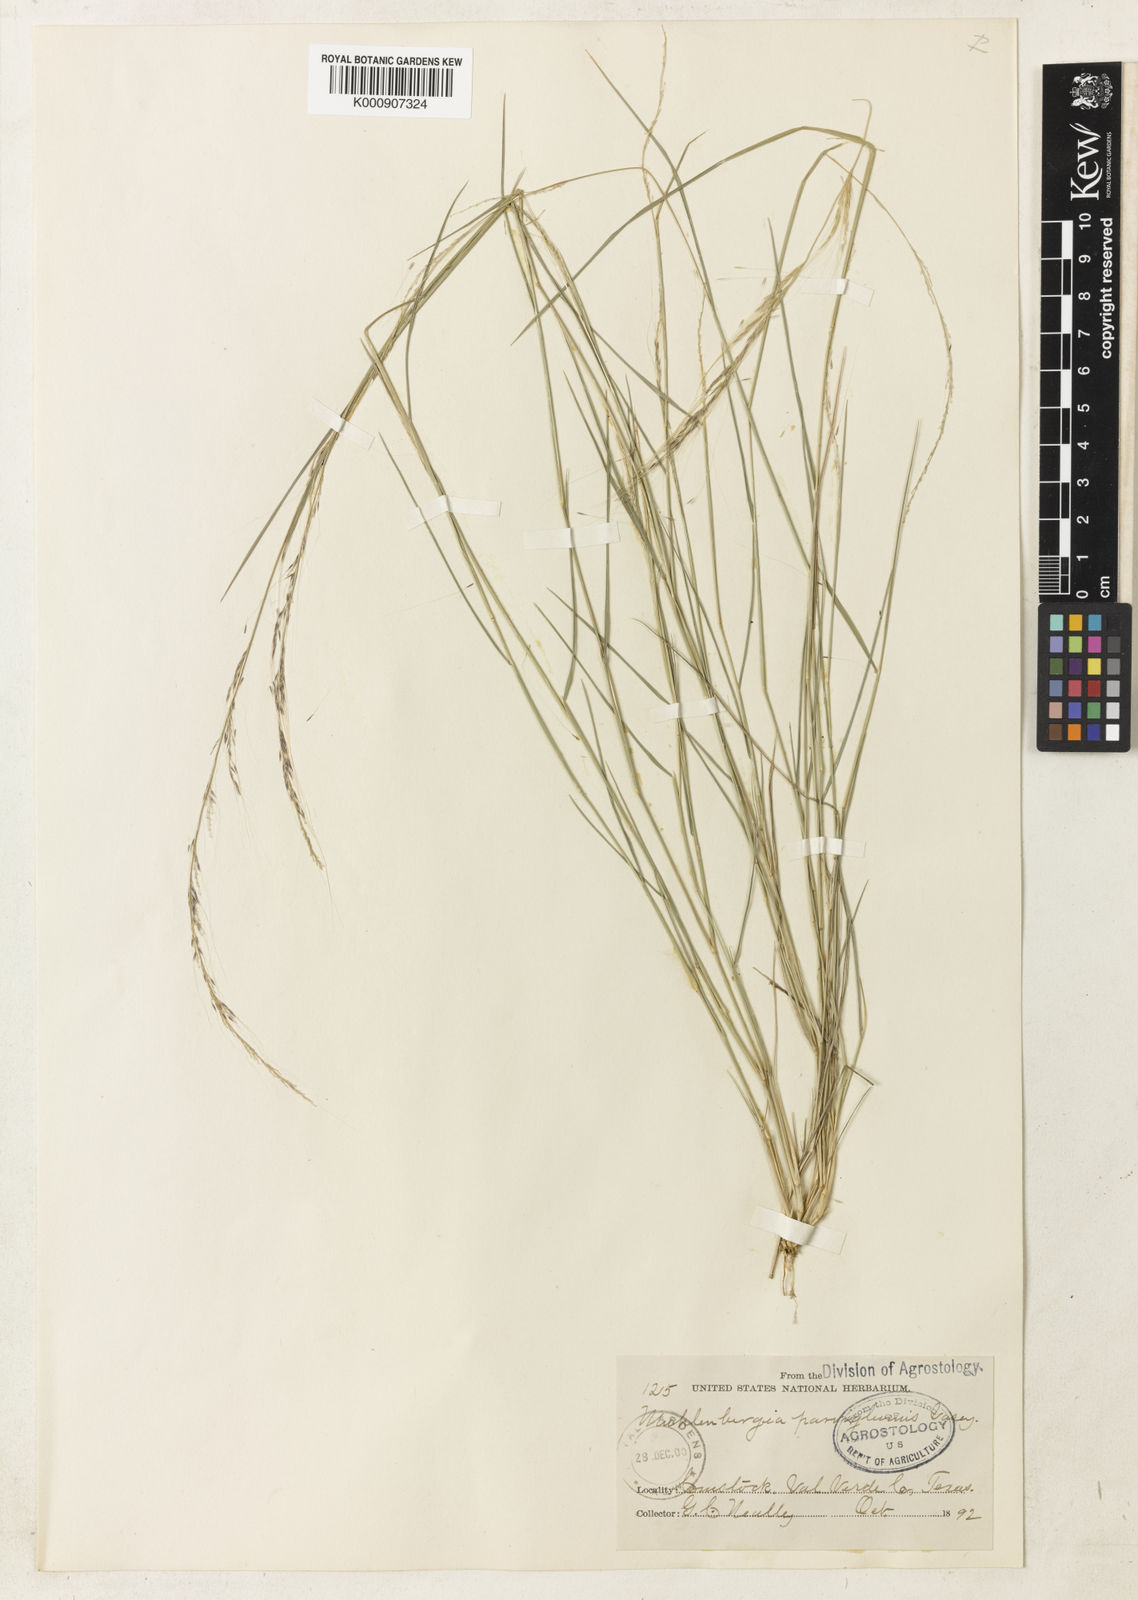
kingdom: Plantae
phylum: Tracheophyta
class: Liliopsida
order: Poales
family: Poaceae
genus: Muhlenbergia
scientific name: Muhlenbergia spiciformis
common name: Longawn muhly
